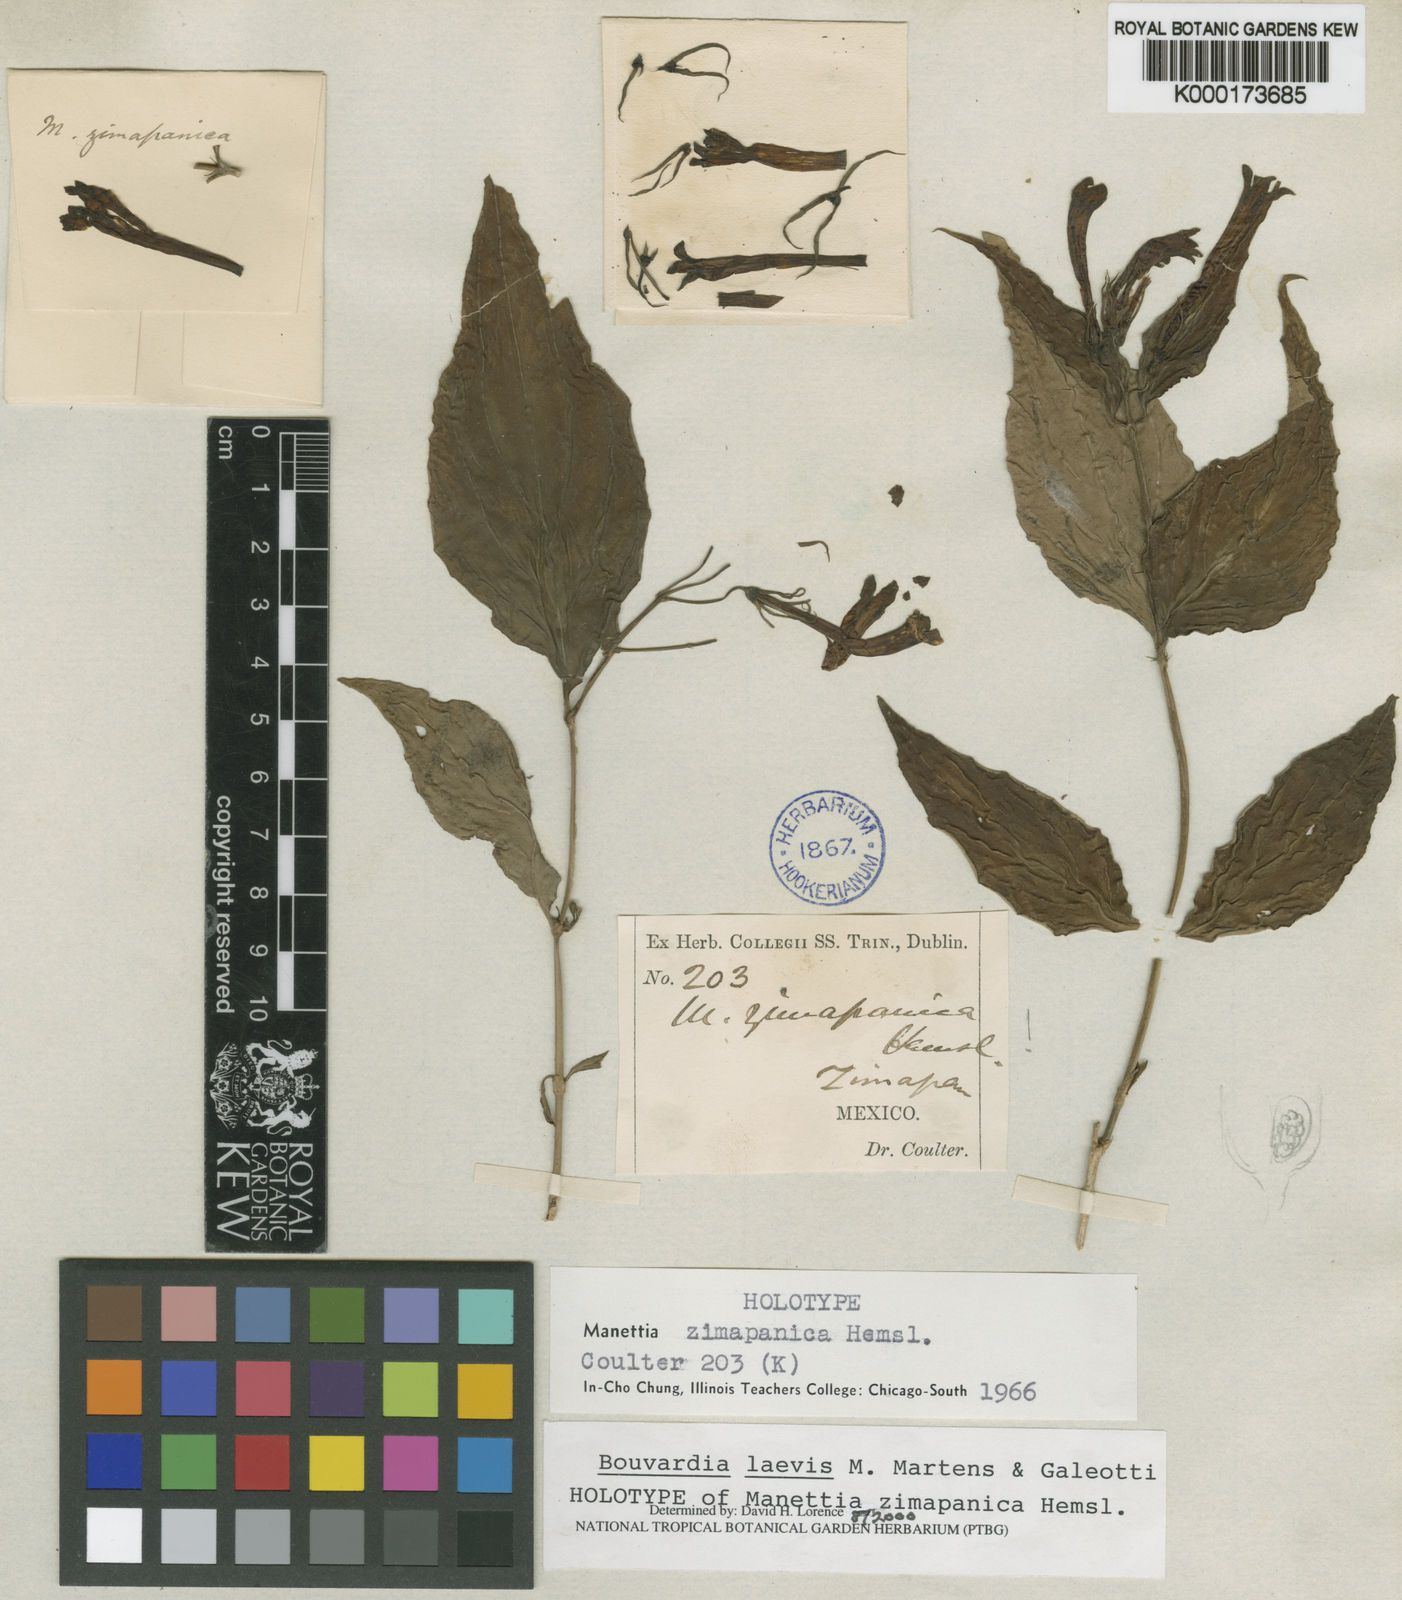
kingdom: Plantae
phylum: Tracheophyta
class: Magnoliopsida
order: Gentianales
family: Rubiaceae
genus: Bouvardia
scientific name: Bouvardia laevis
